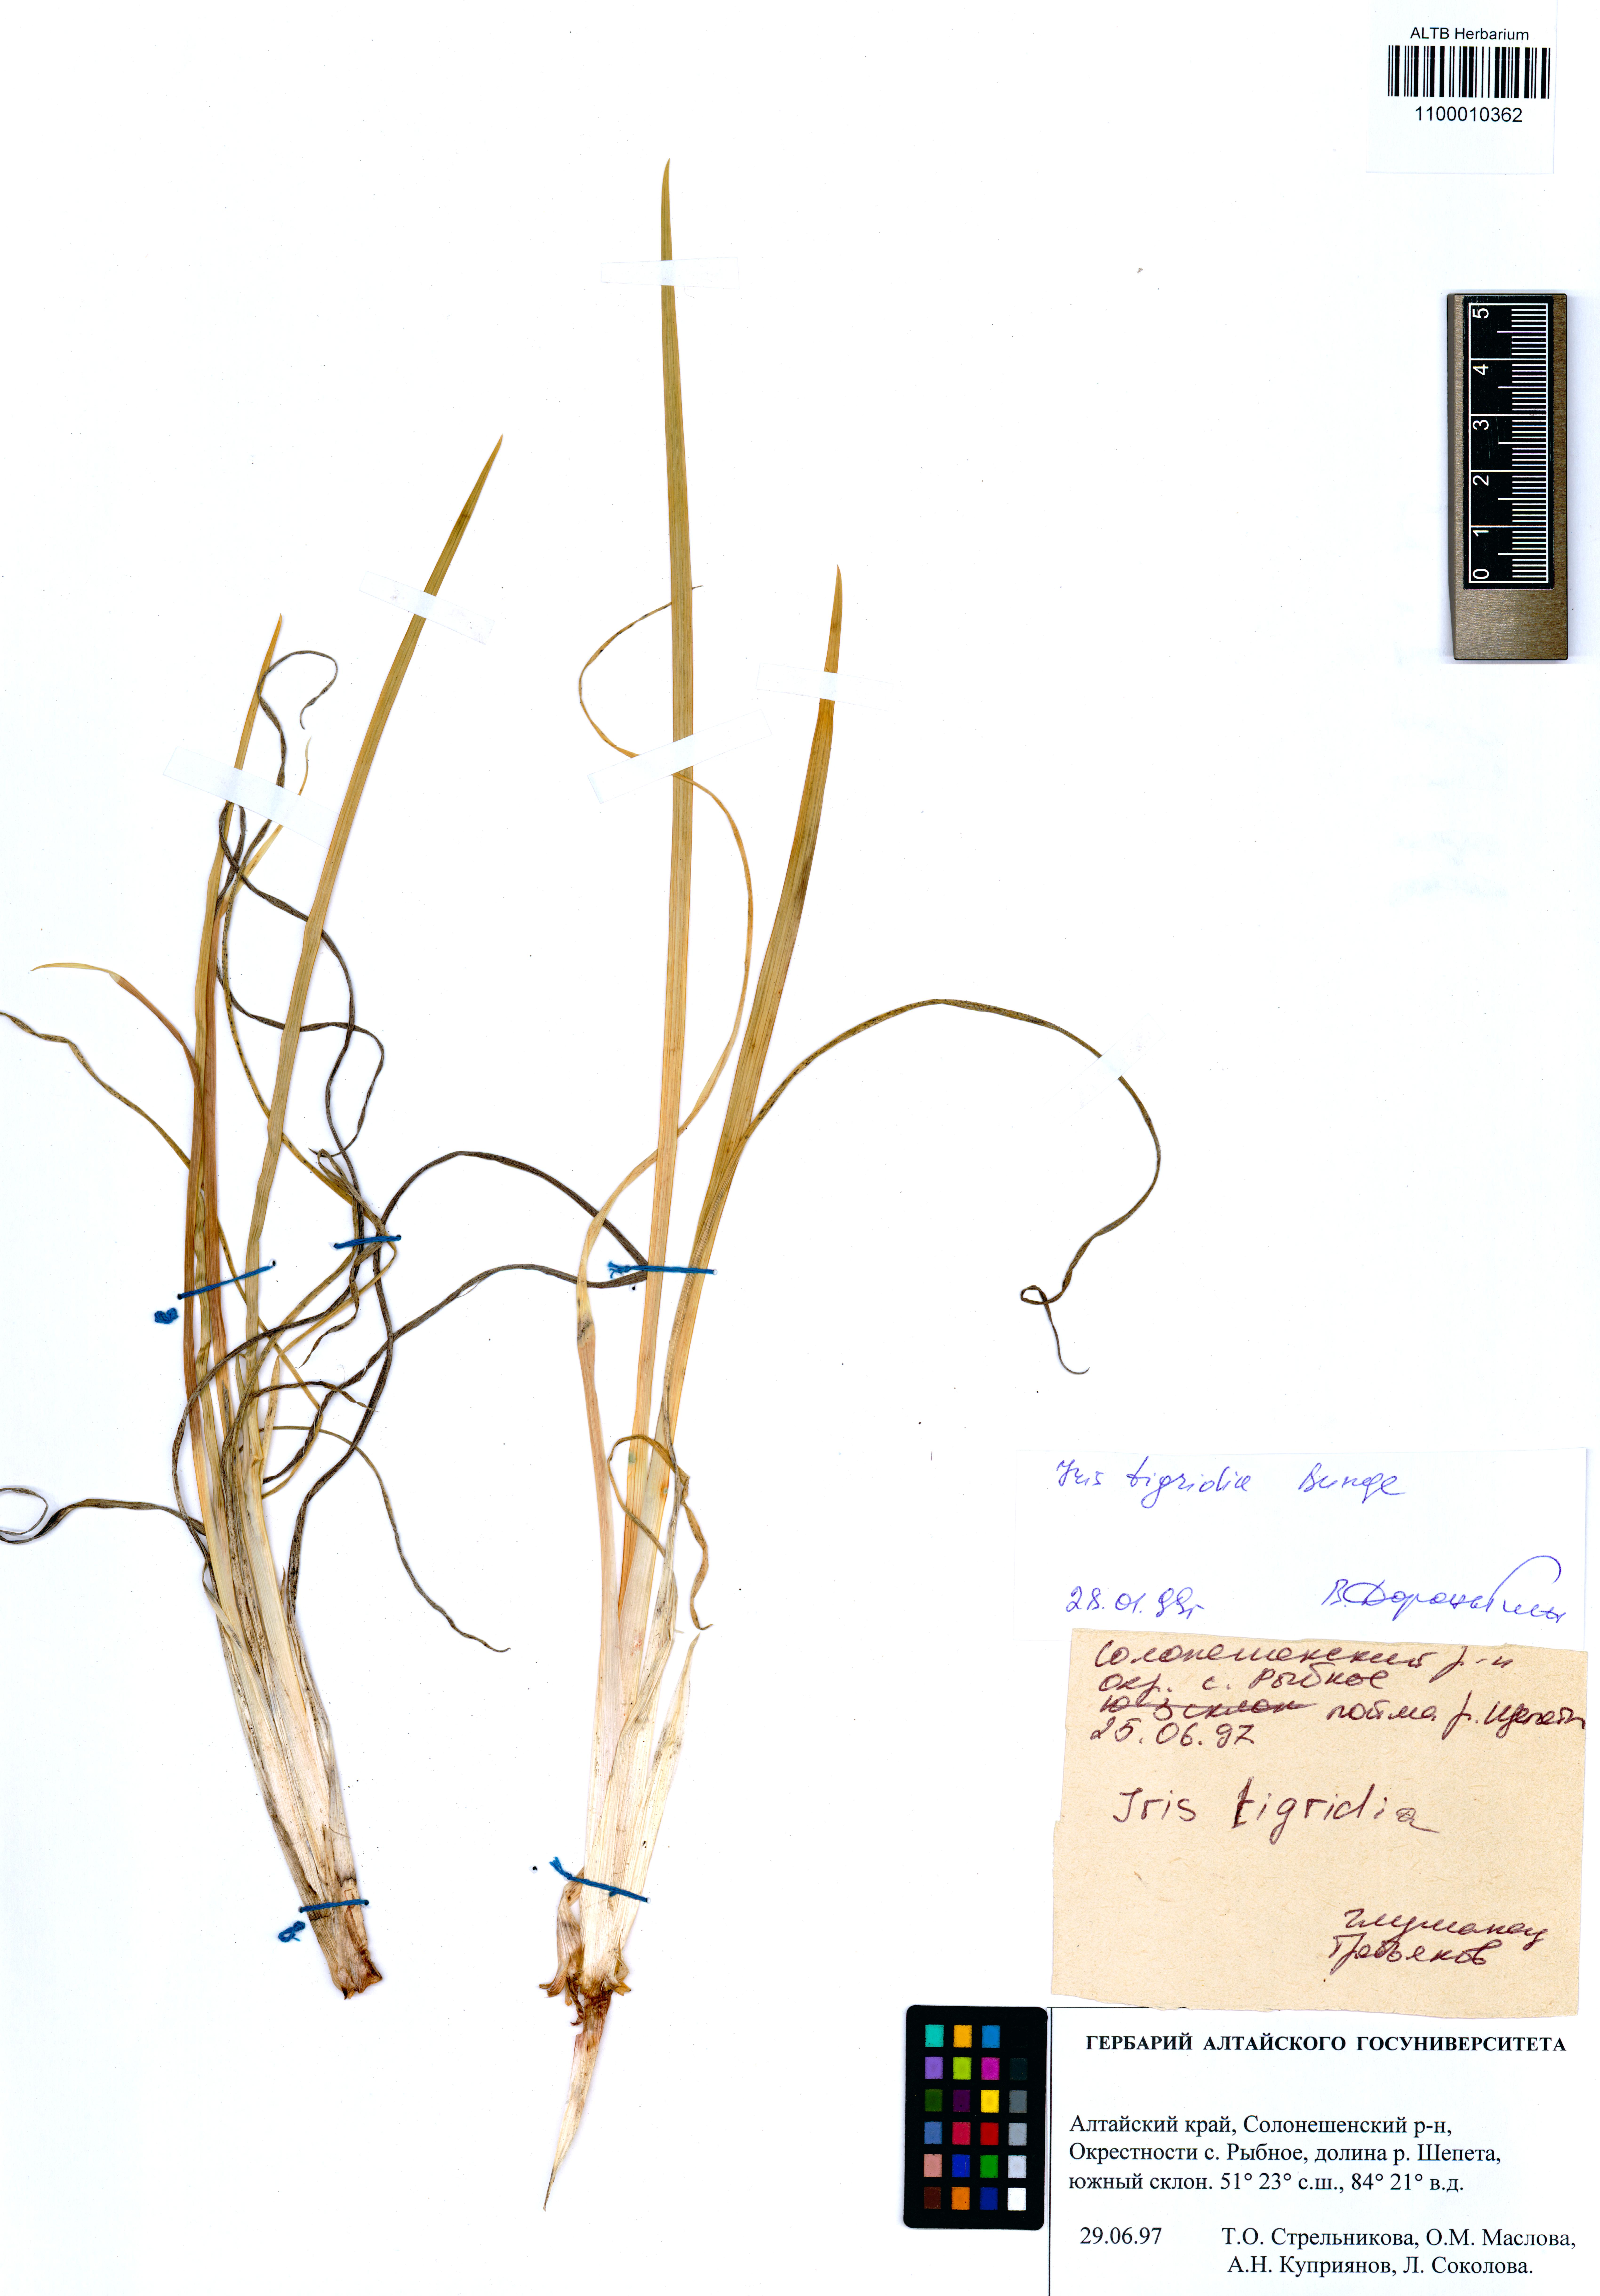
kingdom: Plantae
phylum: Tracheophyta
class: Liliopsida
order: Asparagales
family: Iridaceae
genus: Iris
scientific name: Iris tigridia
